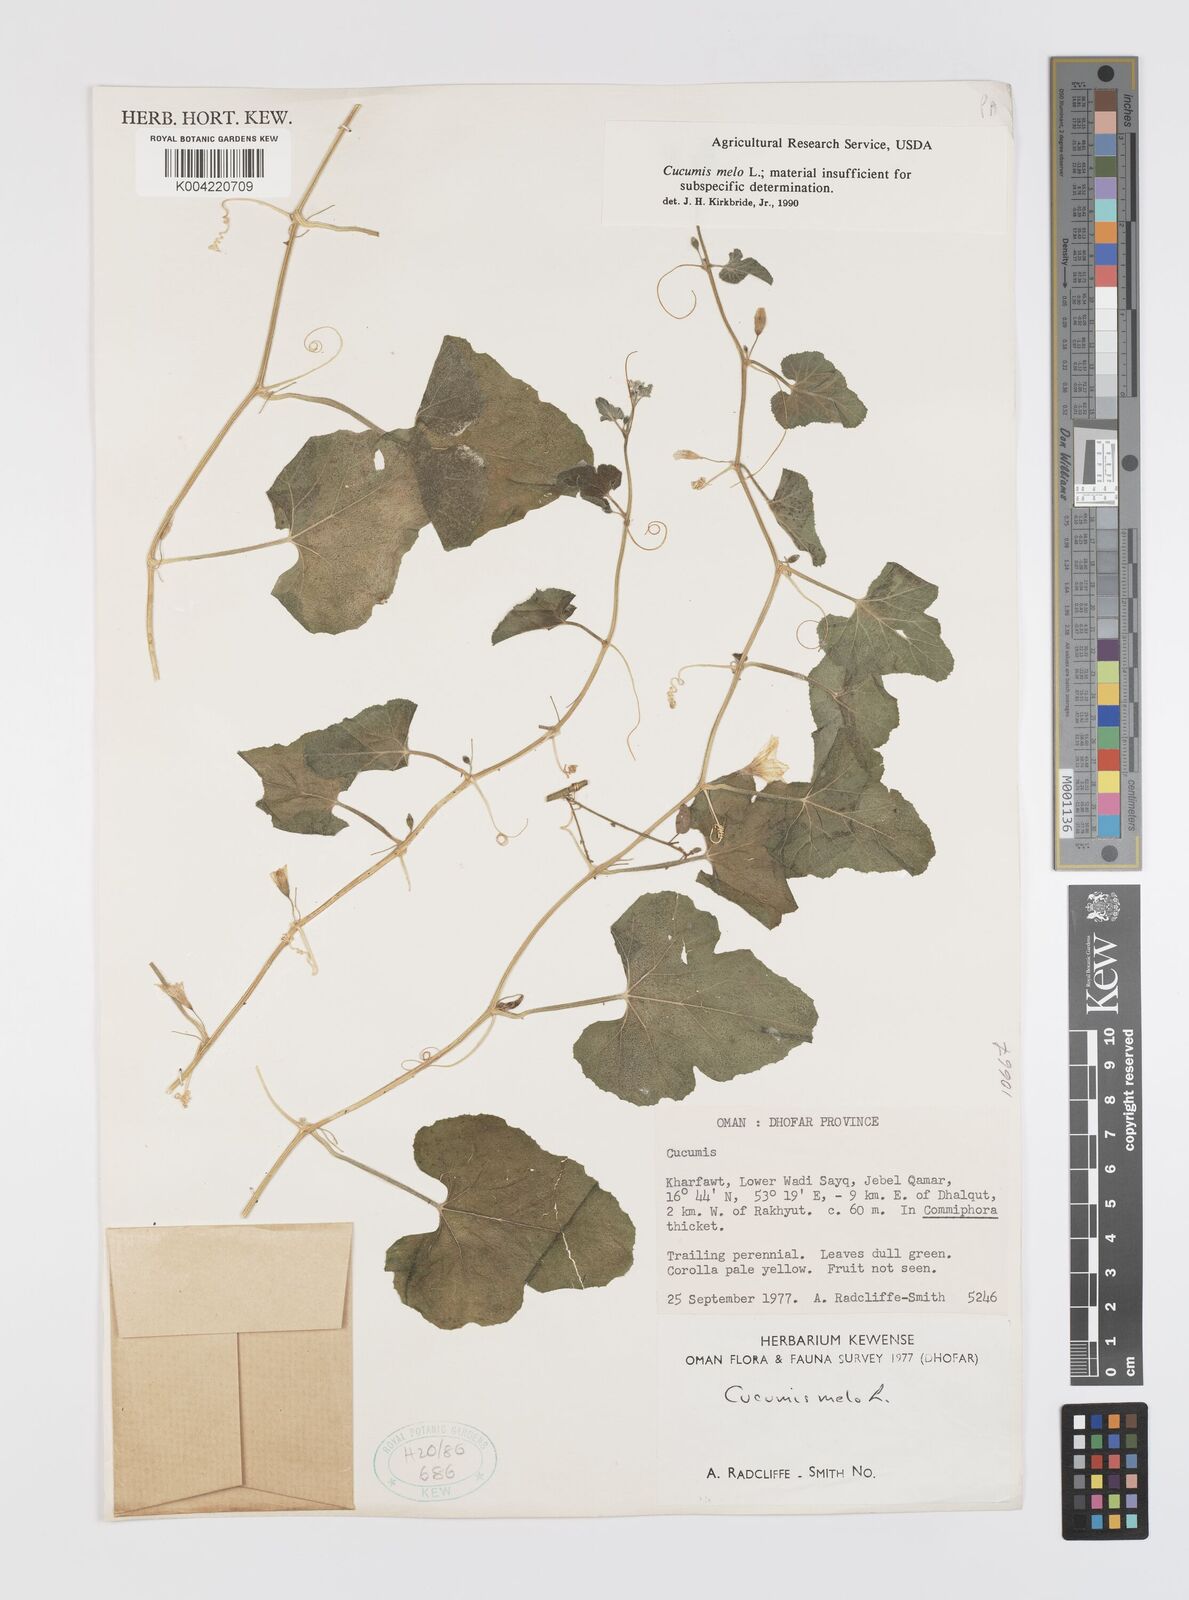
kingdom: Plantae
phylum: Tracheophyta
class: Magnoliopsida
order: Cucurbitales
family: Cucurbitaceae
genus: Cucumis
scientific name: Cucumis melo
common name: Melon
